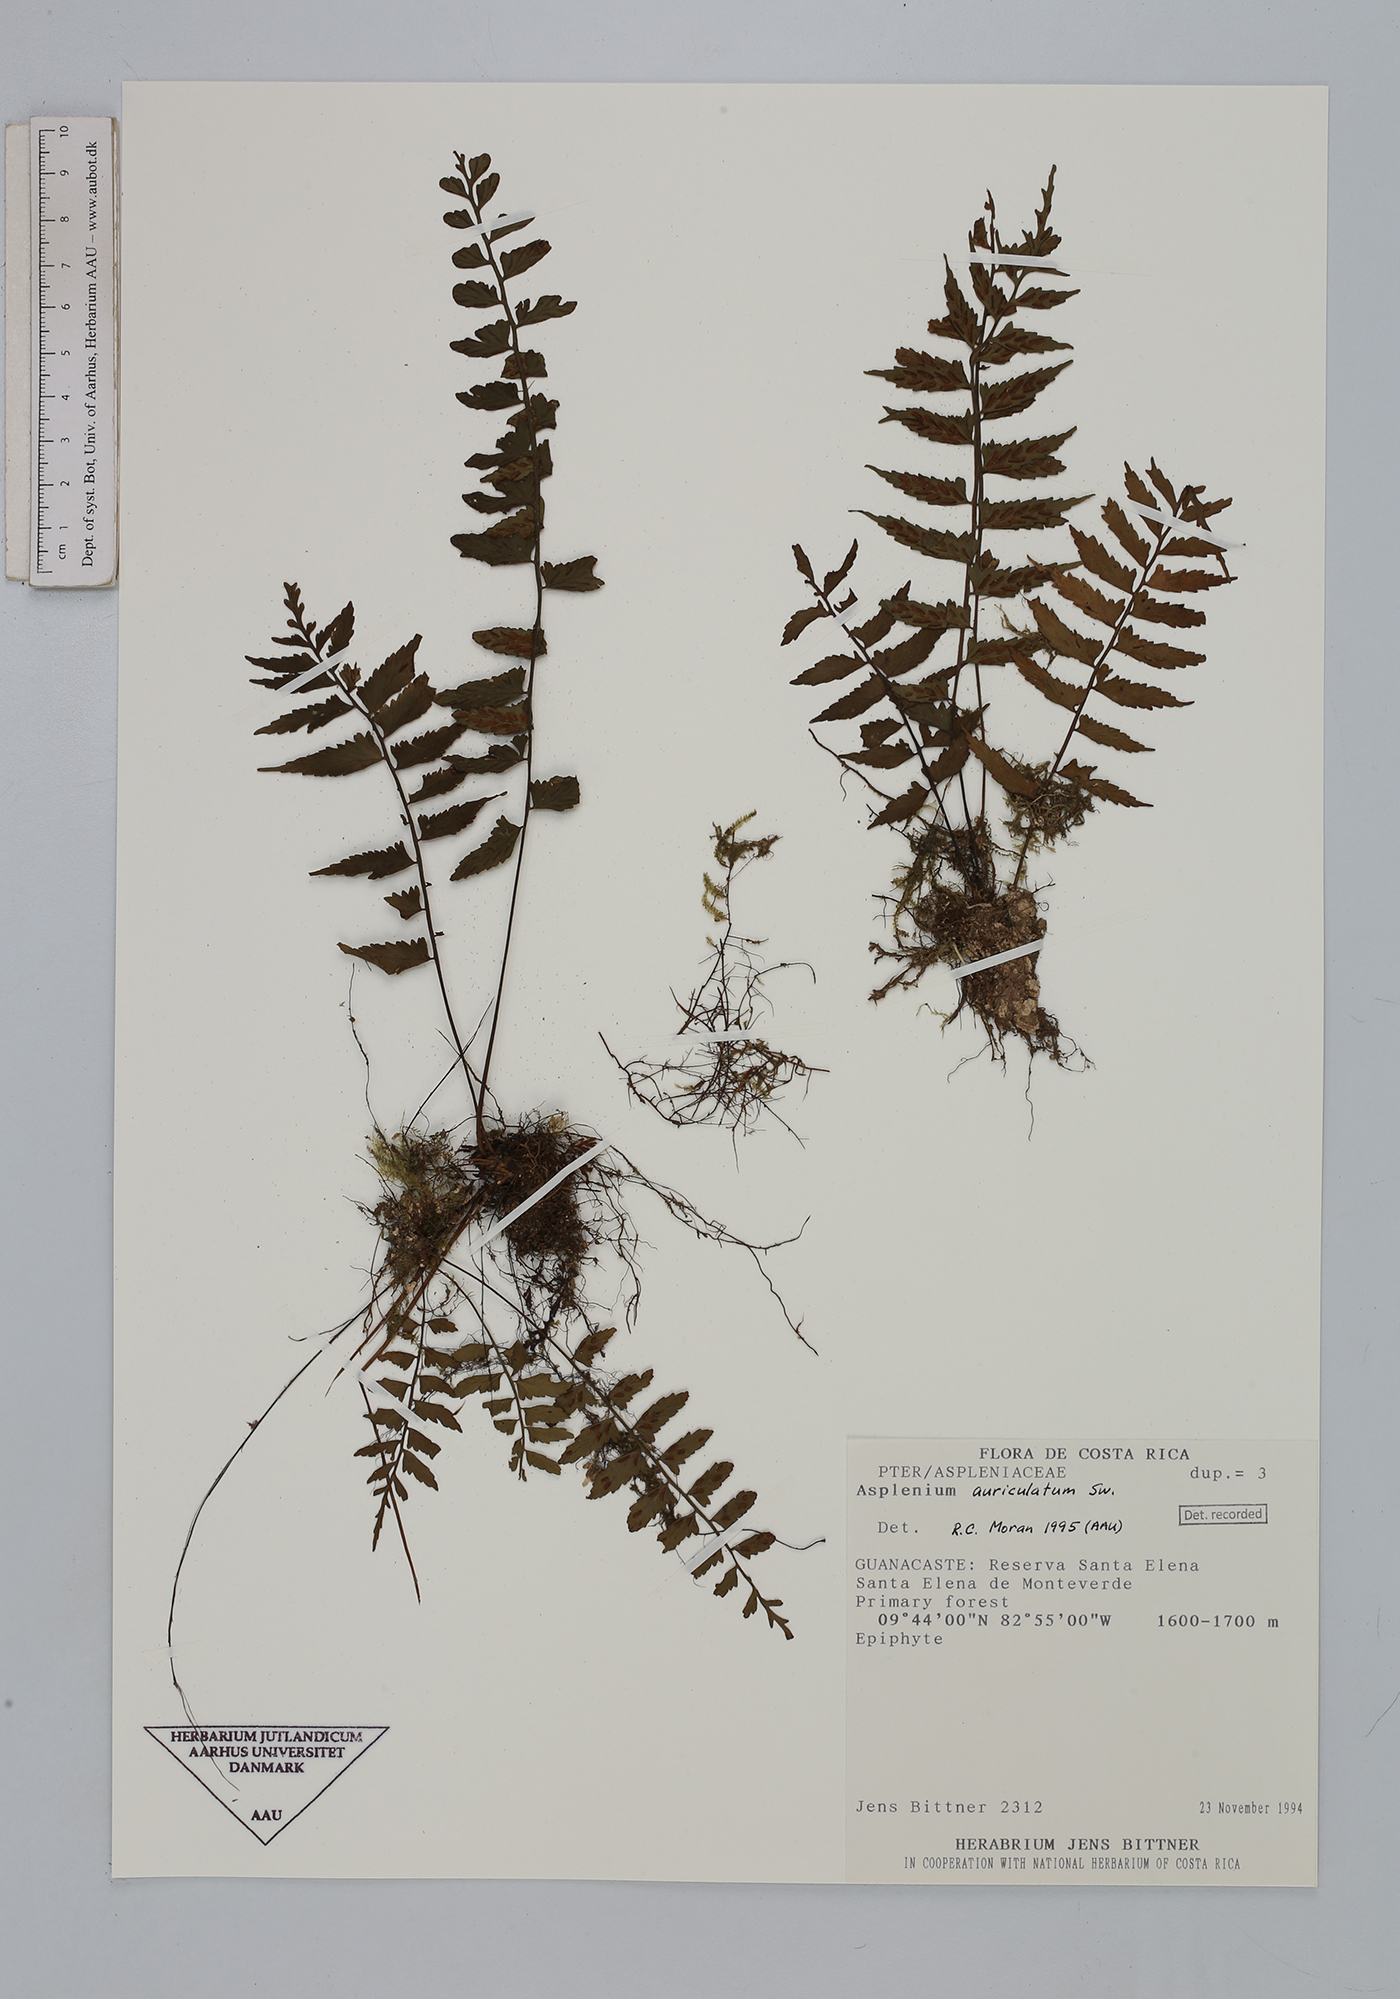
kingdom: Plantae
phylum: Tracheophyta
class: Polypodiopsida
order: Polypodiales
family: Aspleniaceae
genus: Asplenium
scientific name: Asplenium auriculatum
